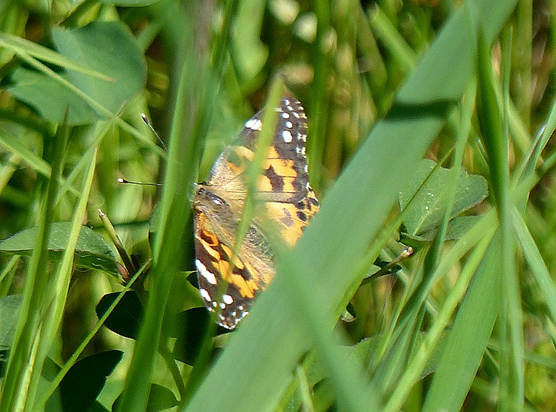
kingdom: Animalia
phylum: Arthropoda
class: Insecta
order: Lepidoptera
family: Nymphalidae
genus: Vanessa
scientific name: Vanessa cardui
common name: Painted Lady
